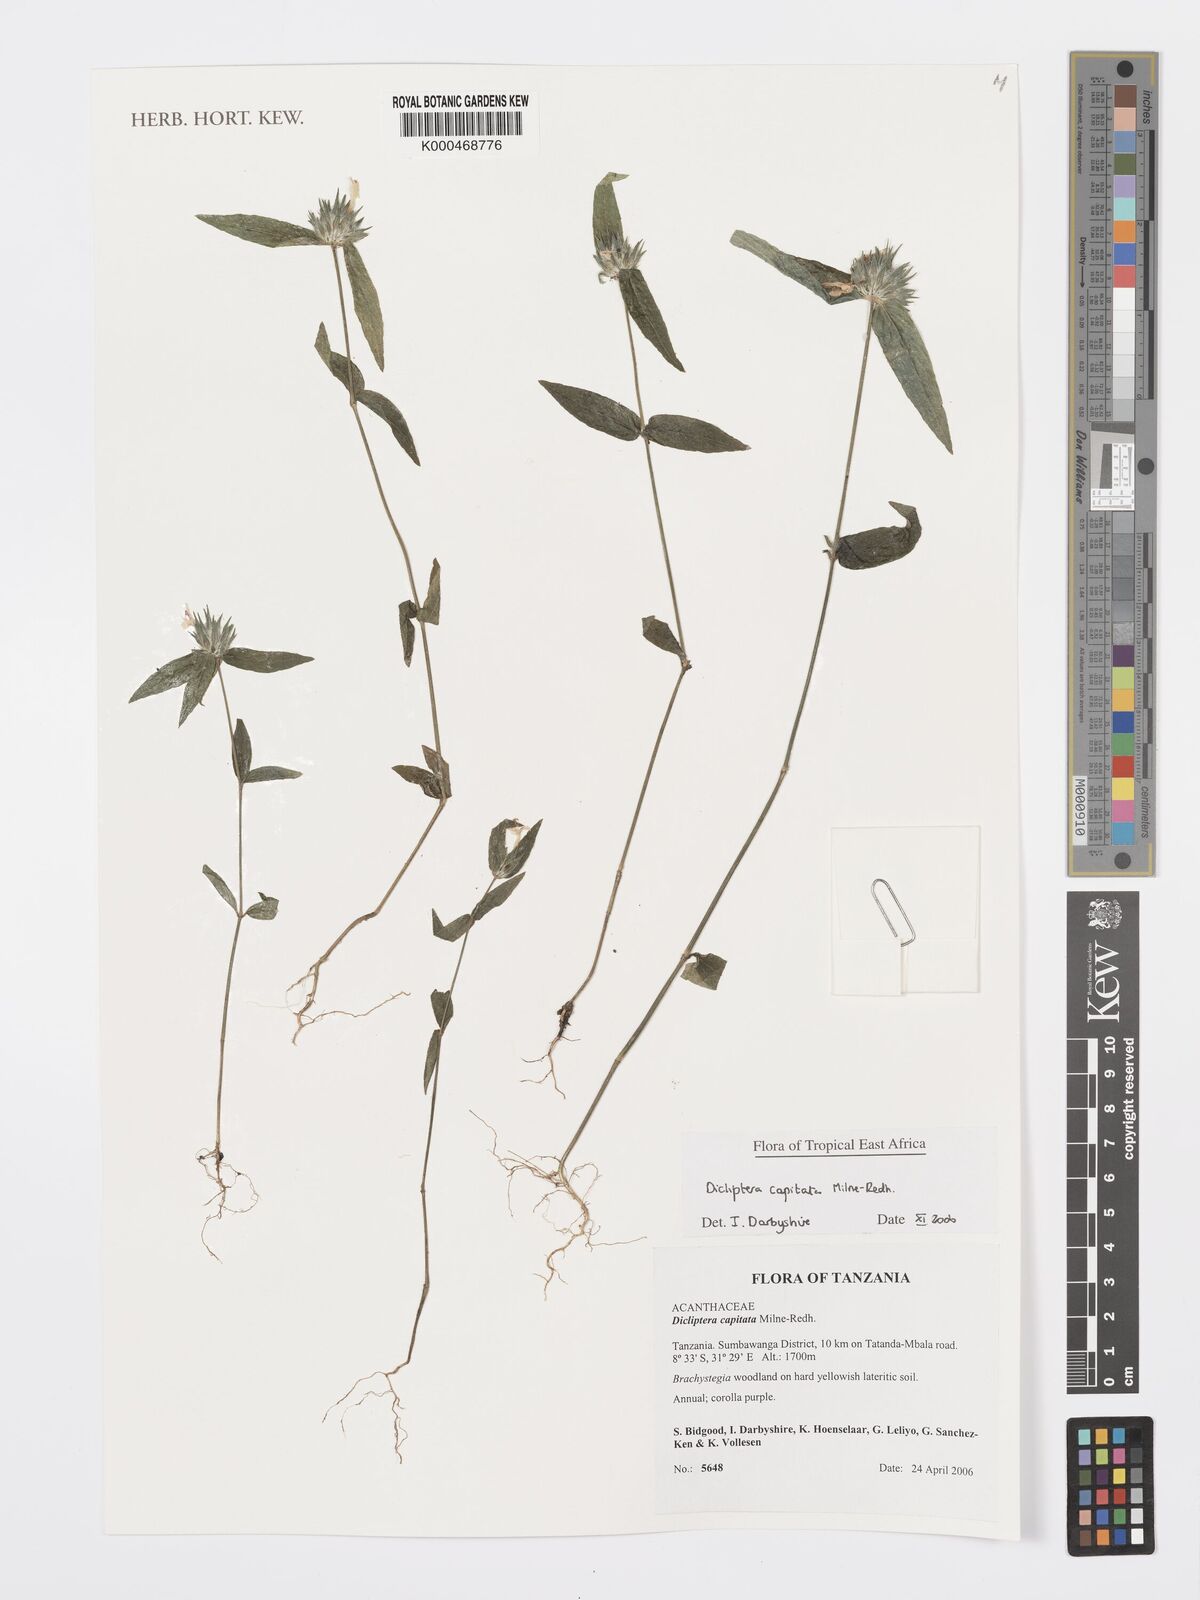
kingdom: Plantae
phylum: Tracheophyta
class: Magnoliopsida
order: Lamiales
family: Acanthaceae
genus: Dicliptera
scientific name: Dicliptera capitata
